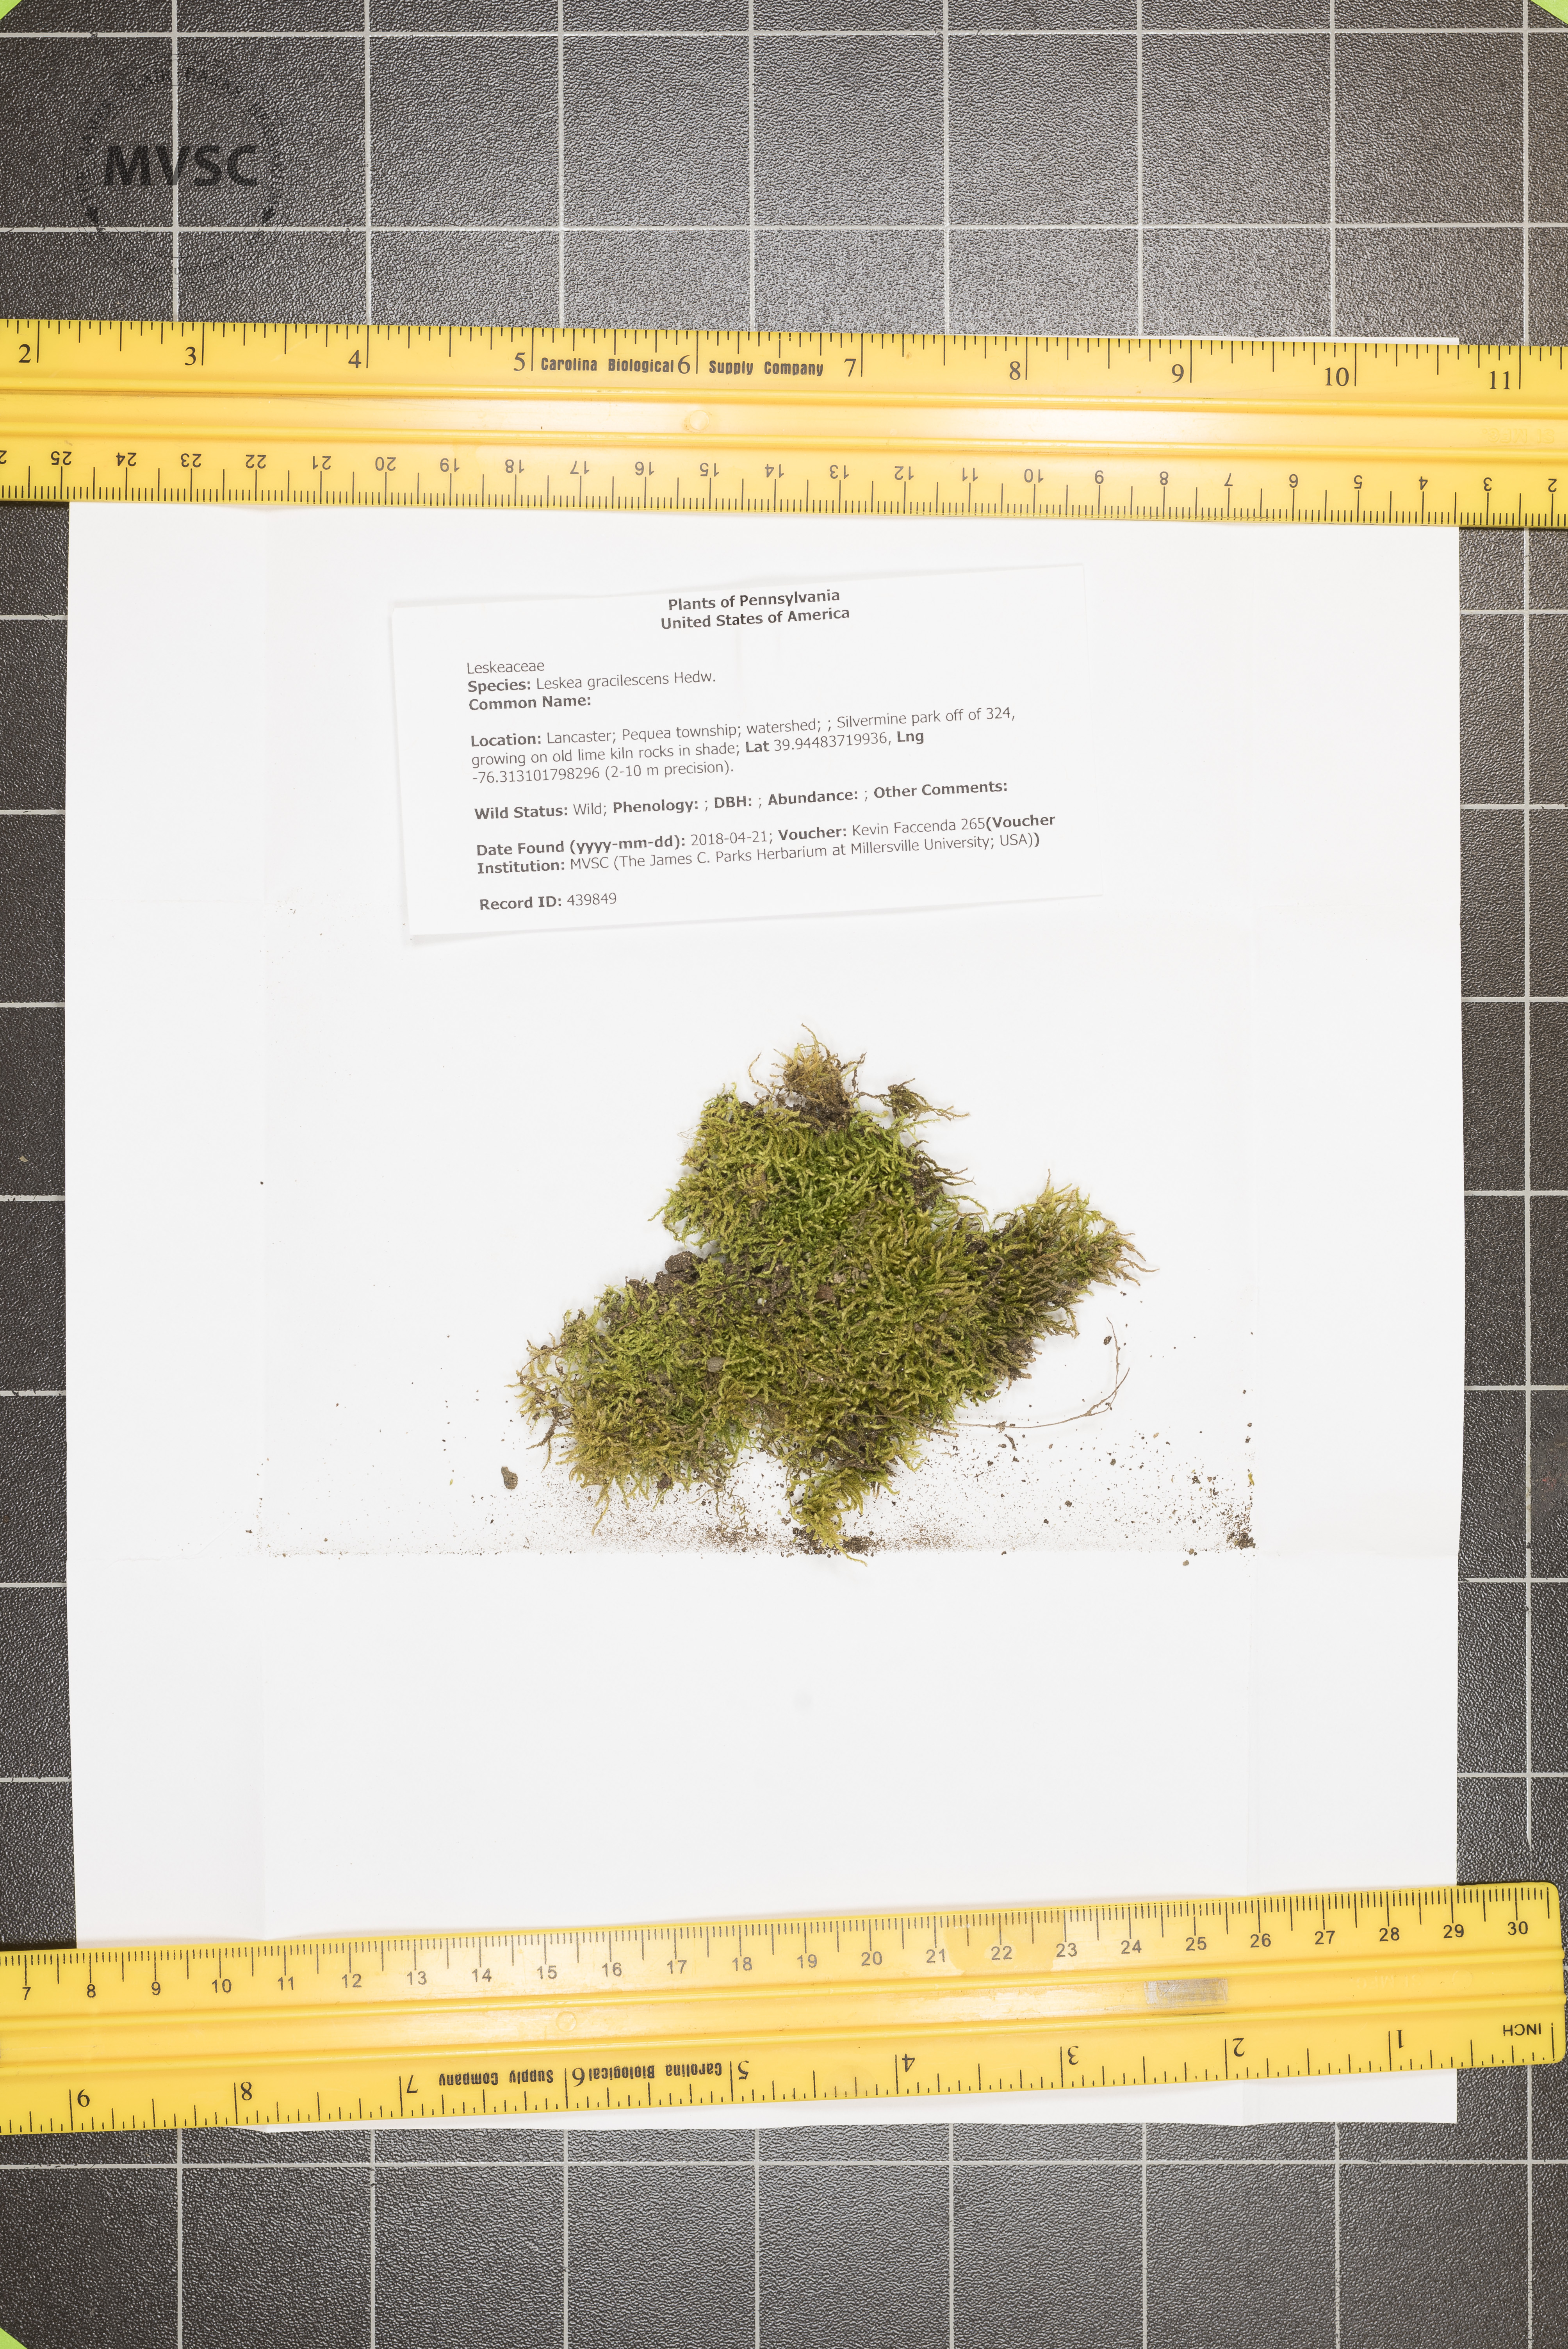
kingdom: Plantae
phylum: Bryophyta
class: Bryopsida
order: Hypnales
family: Leskeaceae
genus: Leskea
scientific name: Leskea gracilescens
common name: Common leske's moss
